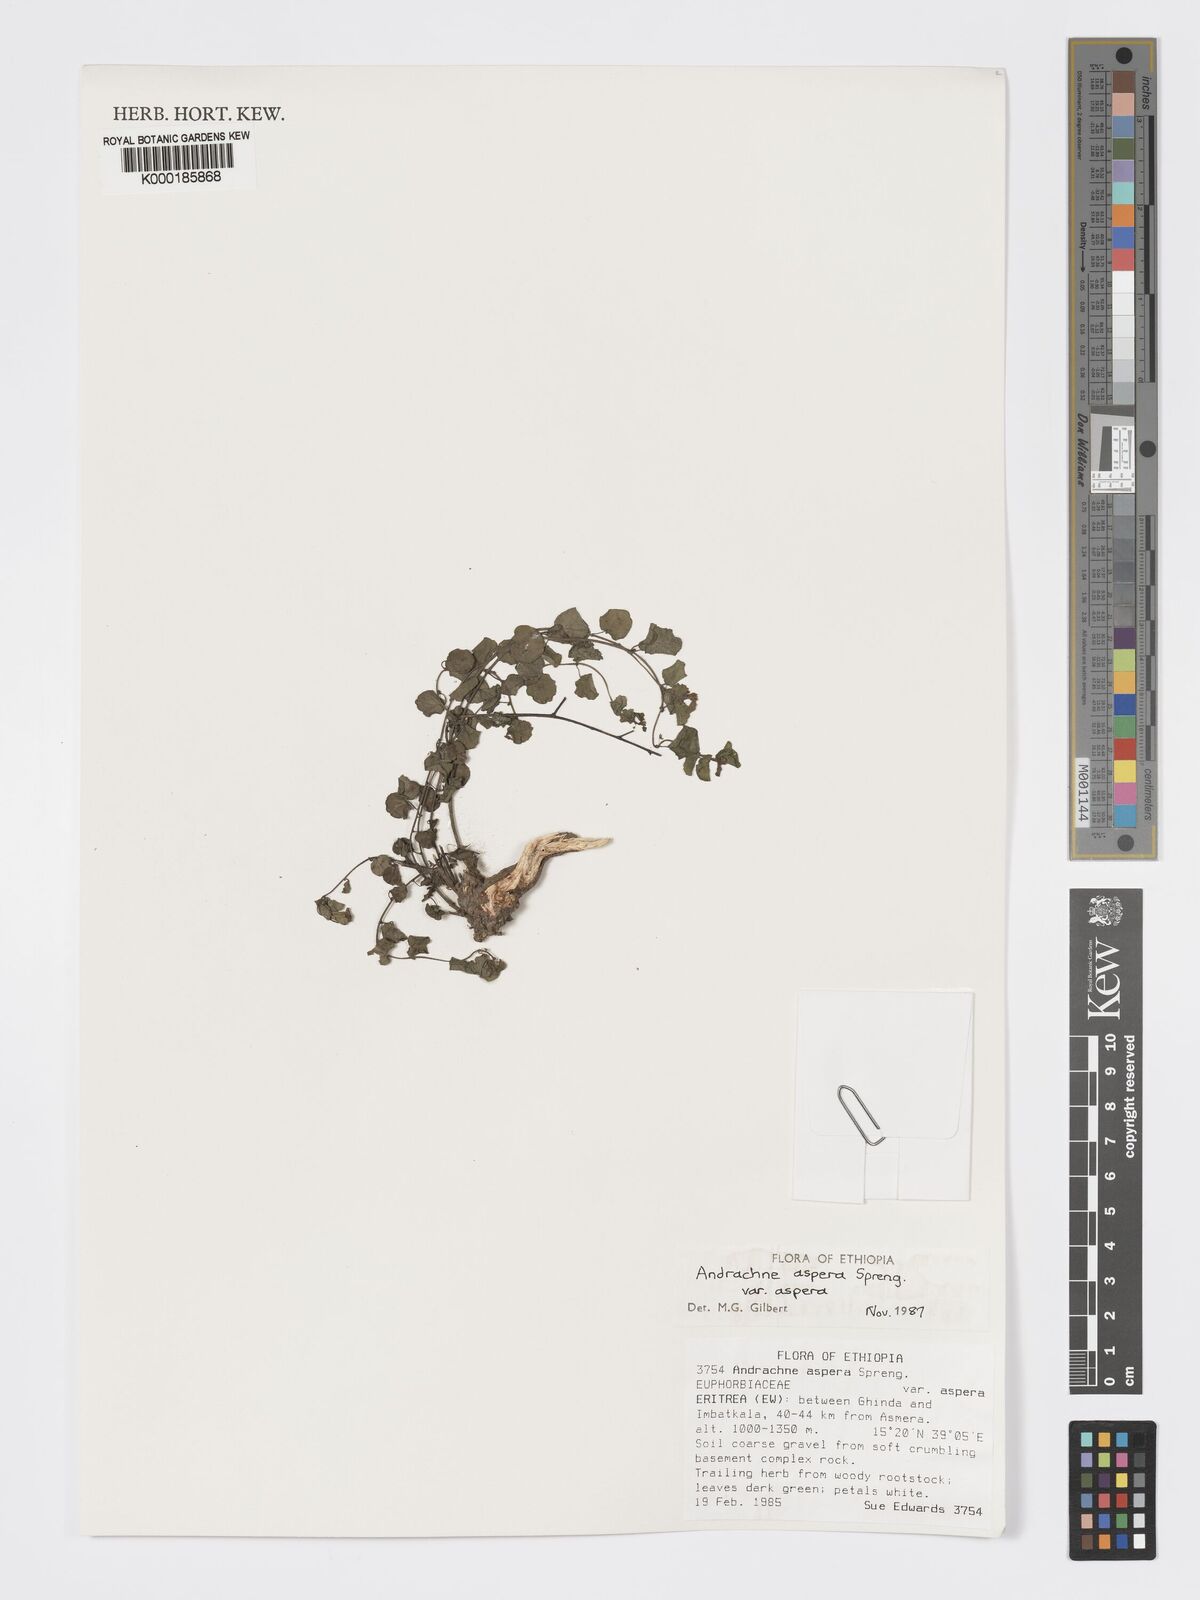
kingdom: Plantae
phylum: Tracheophyta
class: Magnoliopsida
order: Malpighiales
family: Phyllanthaceae
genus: Andrachne
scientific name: Andrachne aspera
